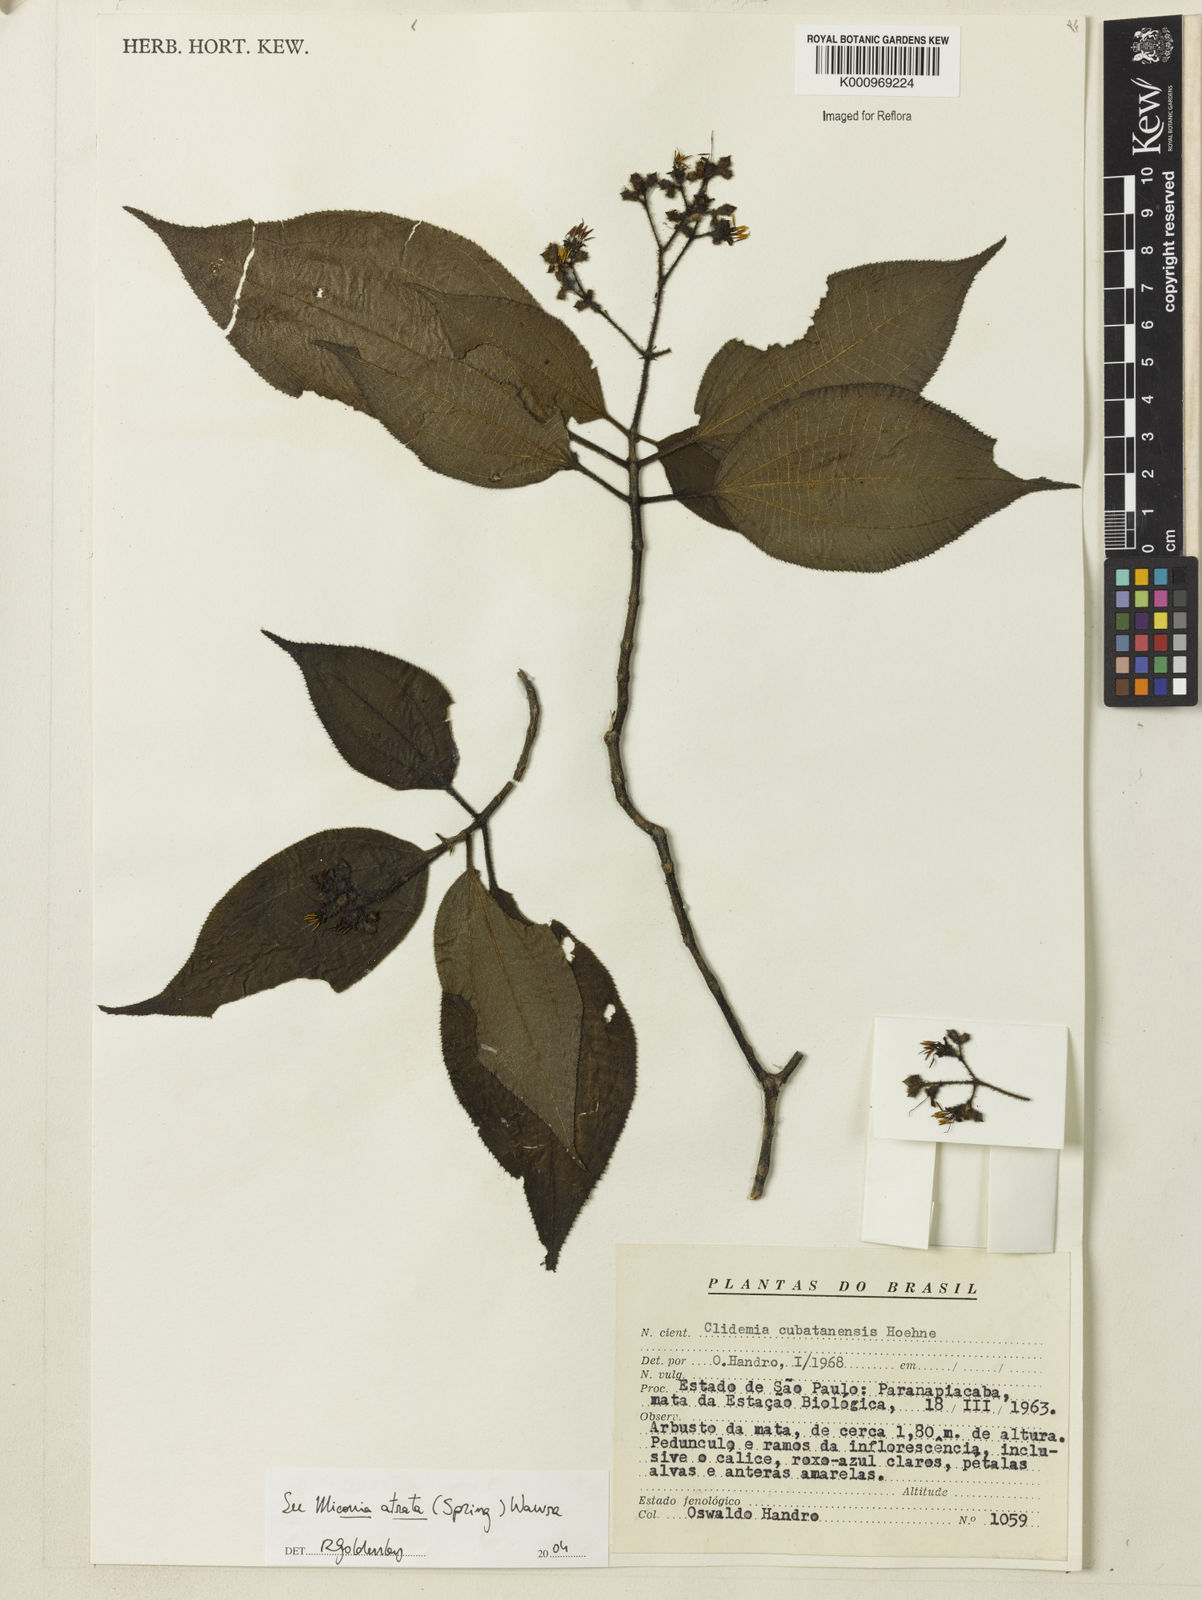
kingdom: Plantae
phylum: Tracheophyta
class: Magnoliopsida
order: Myrtales
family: Melastomataceae
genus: Miconia
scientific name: Miconia
